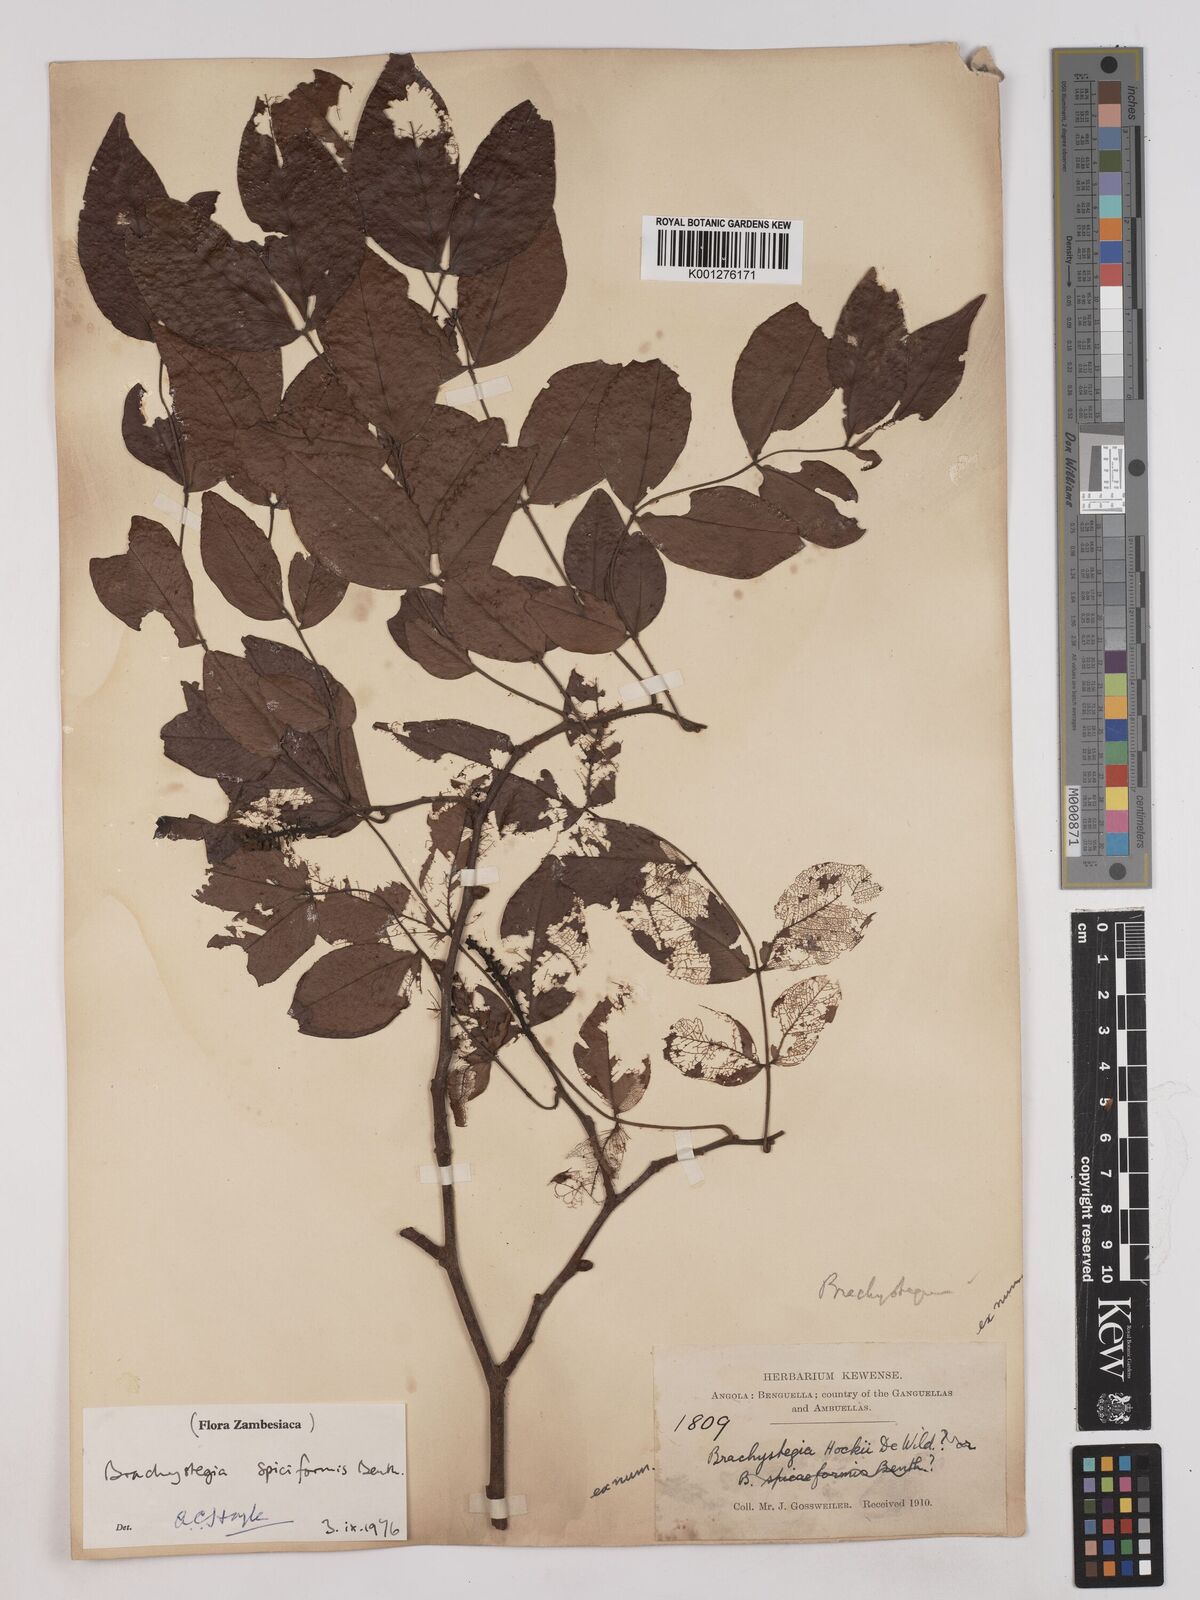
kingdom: Plantae
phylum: Tracheophyta
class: Magnoliopsida
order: Fabales
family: Fabaceae
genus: Brachystegia
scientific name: Brachystegia
